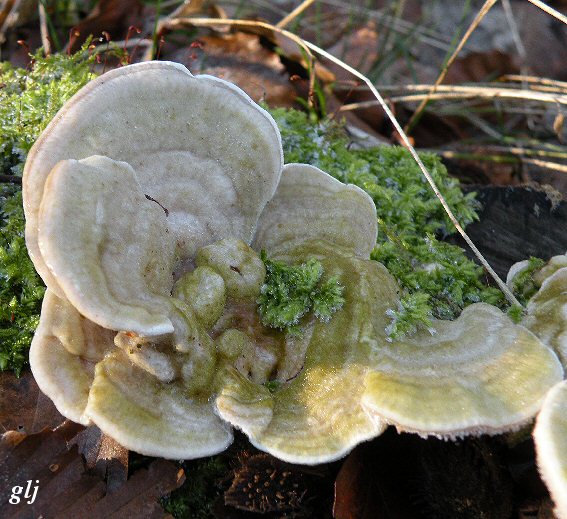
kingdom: Fungi
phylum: Basidiomycota
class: Agaricomycetes
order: Polyporales
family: Polyporaceae
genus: Trametes
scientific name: Trametes gibbosa
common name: puklet læderporesvamp
